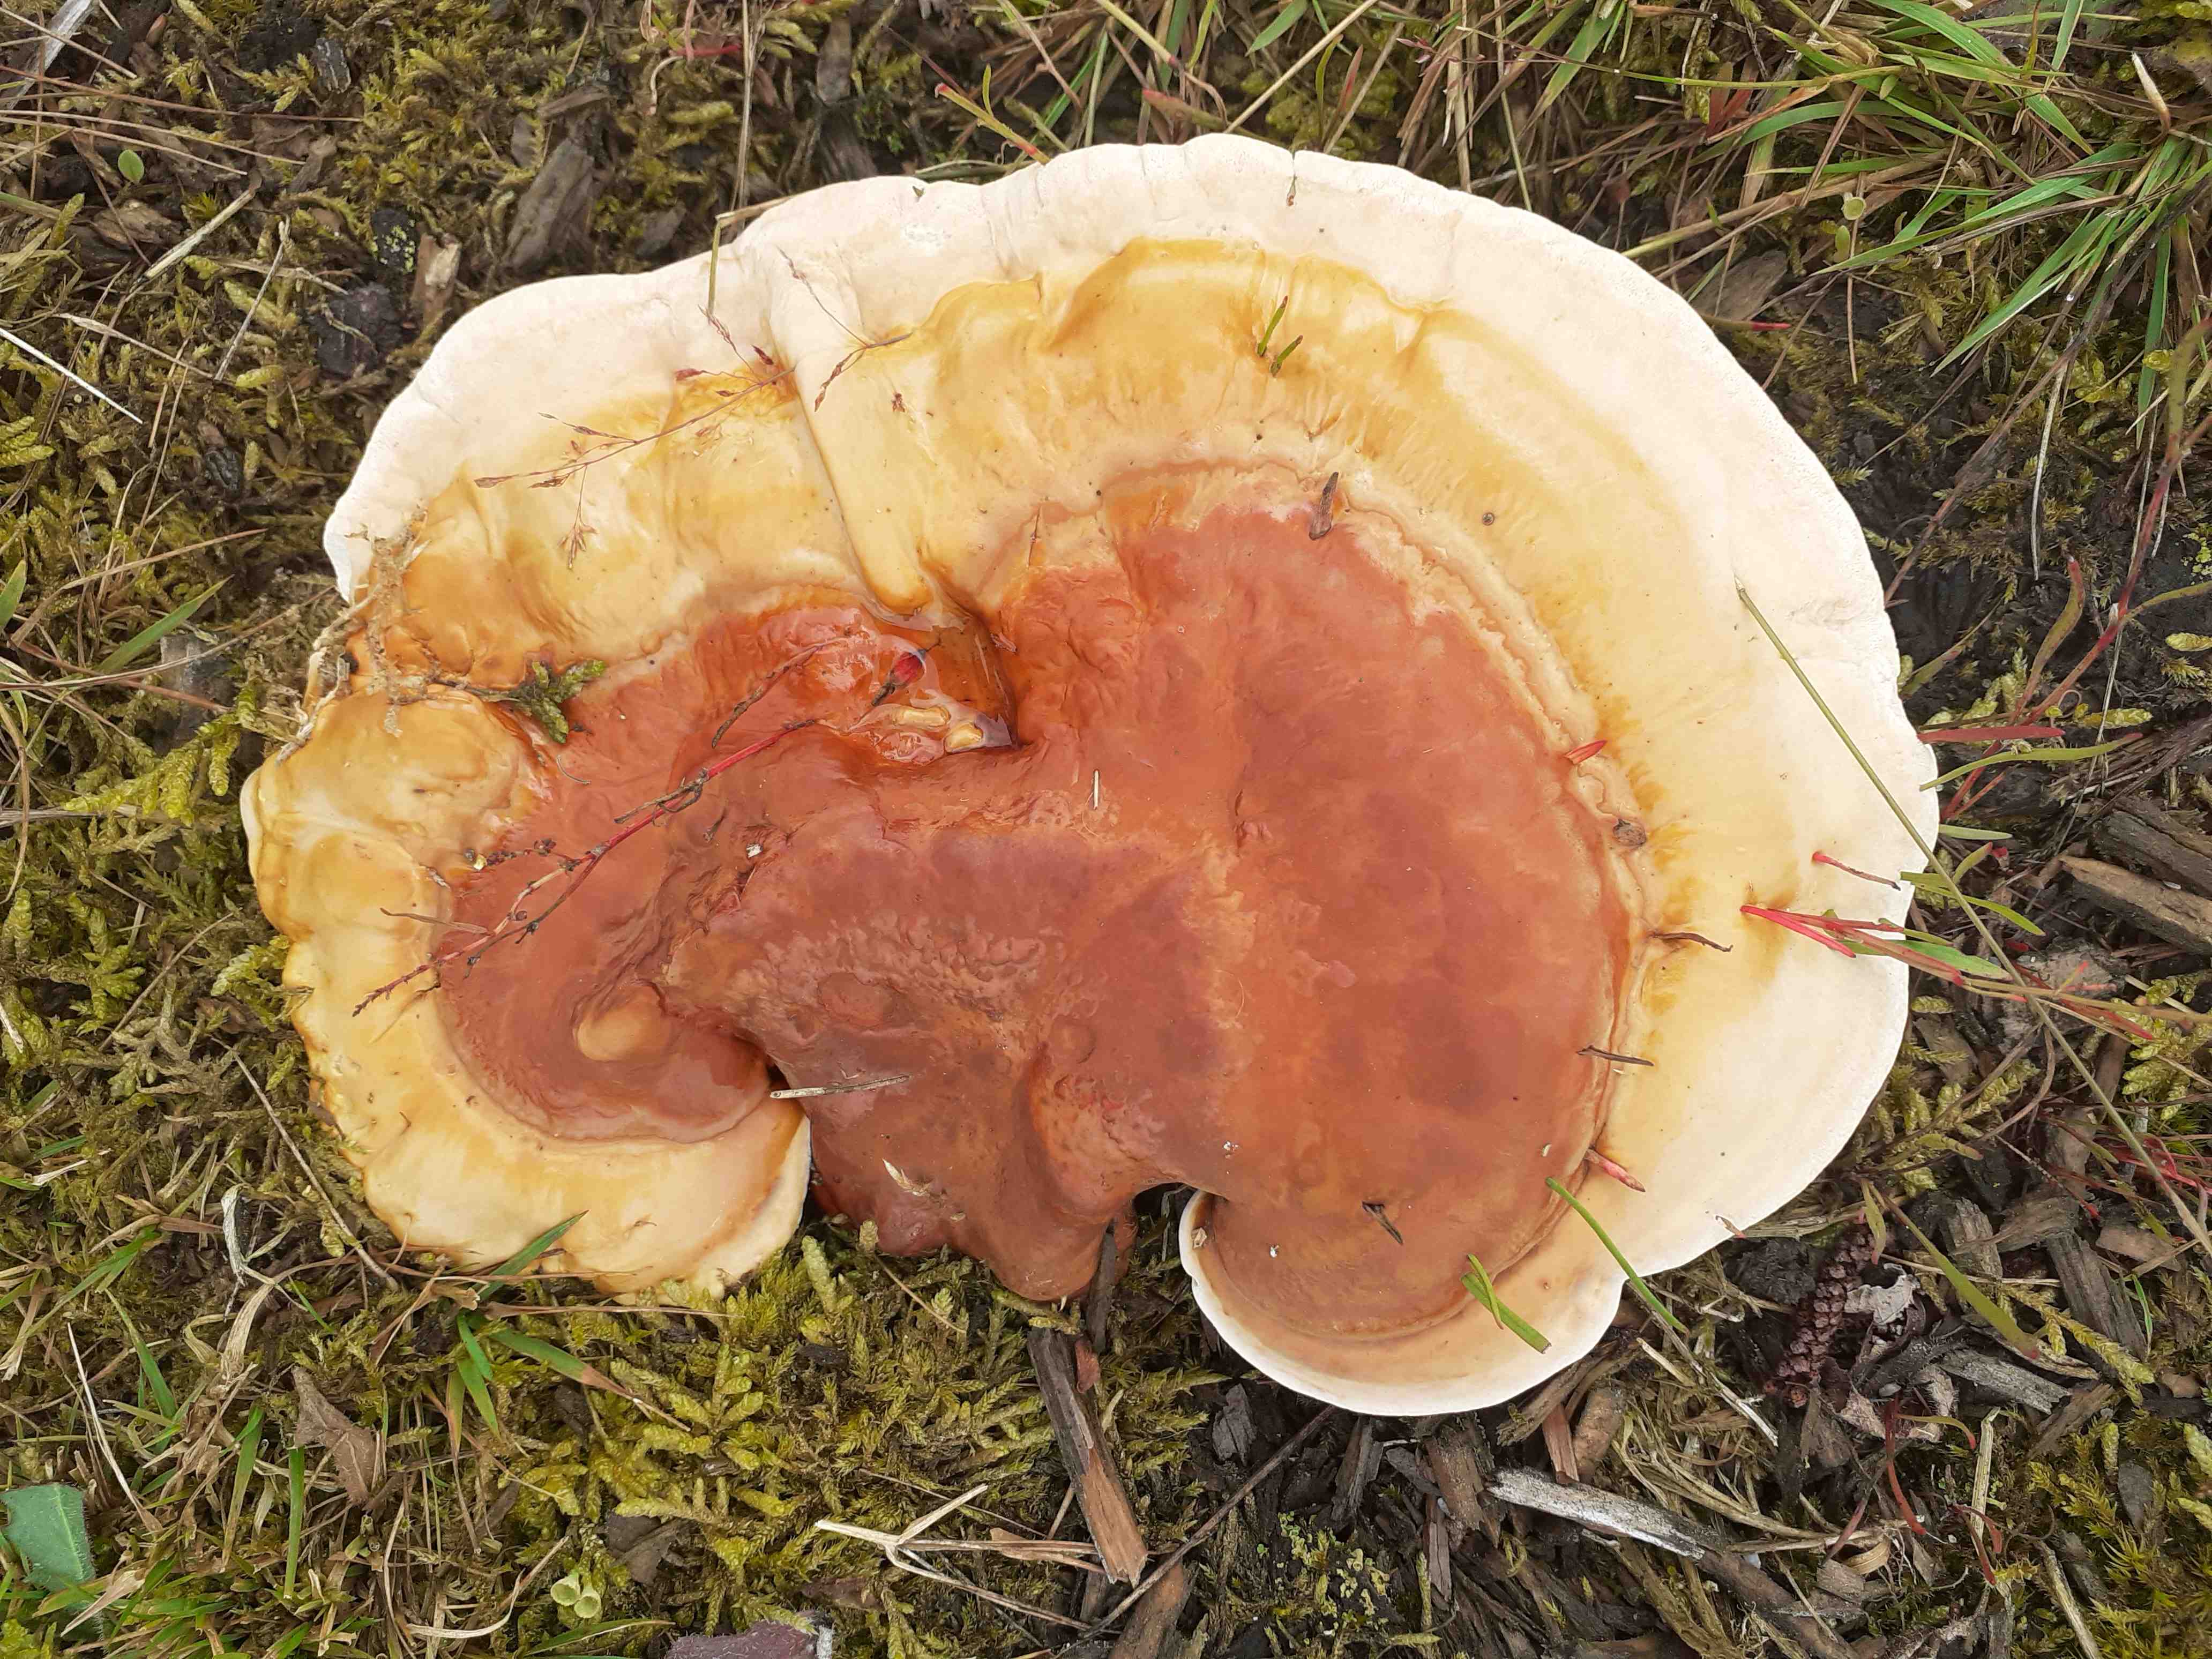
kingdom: Fungi
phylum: Basidiomycota
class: Agaricomycetes
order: Polyporales
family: Polyporaceae
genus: Ganoderma
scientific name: Ganoderma lucidum
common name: skinnende lakporesvamp
